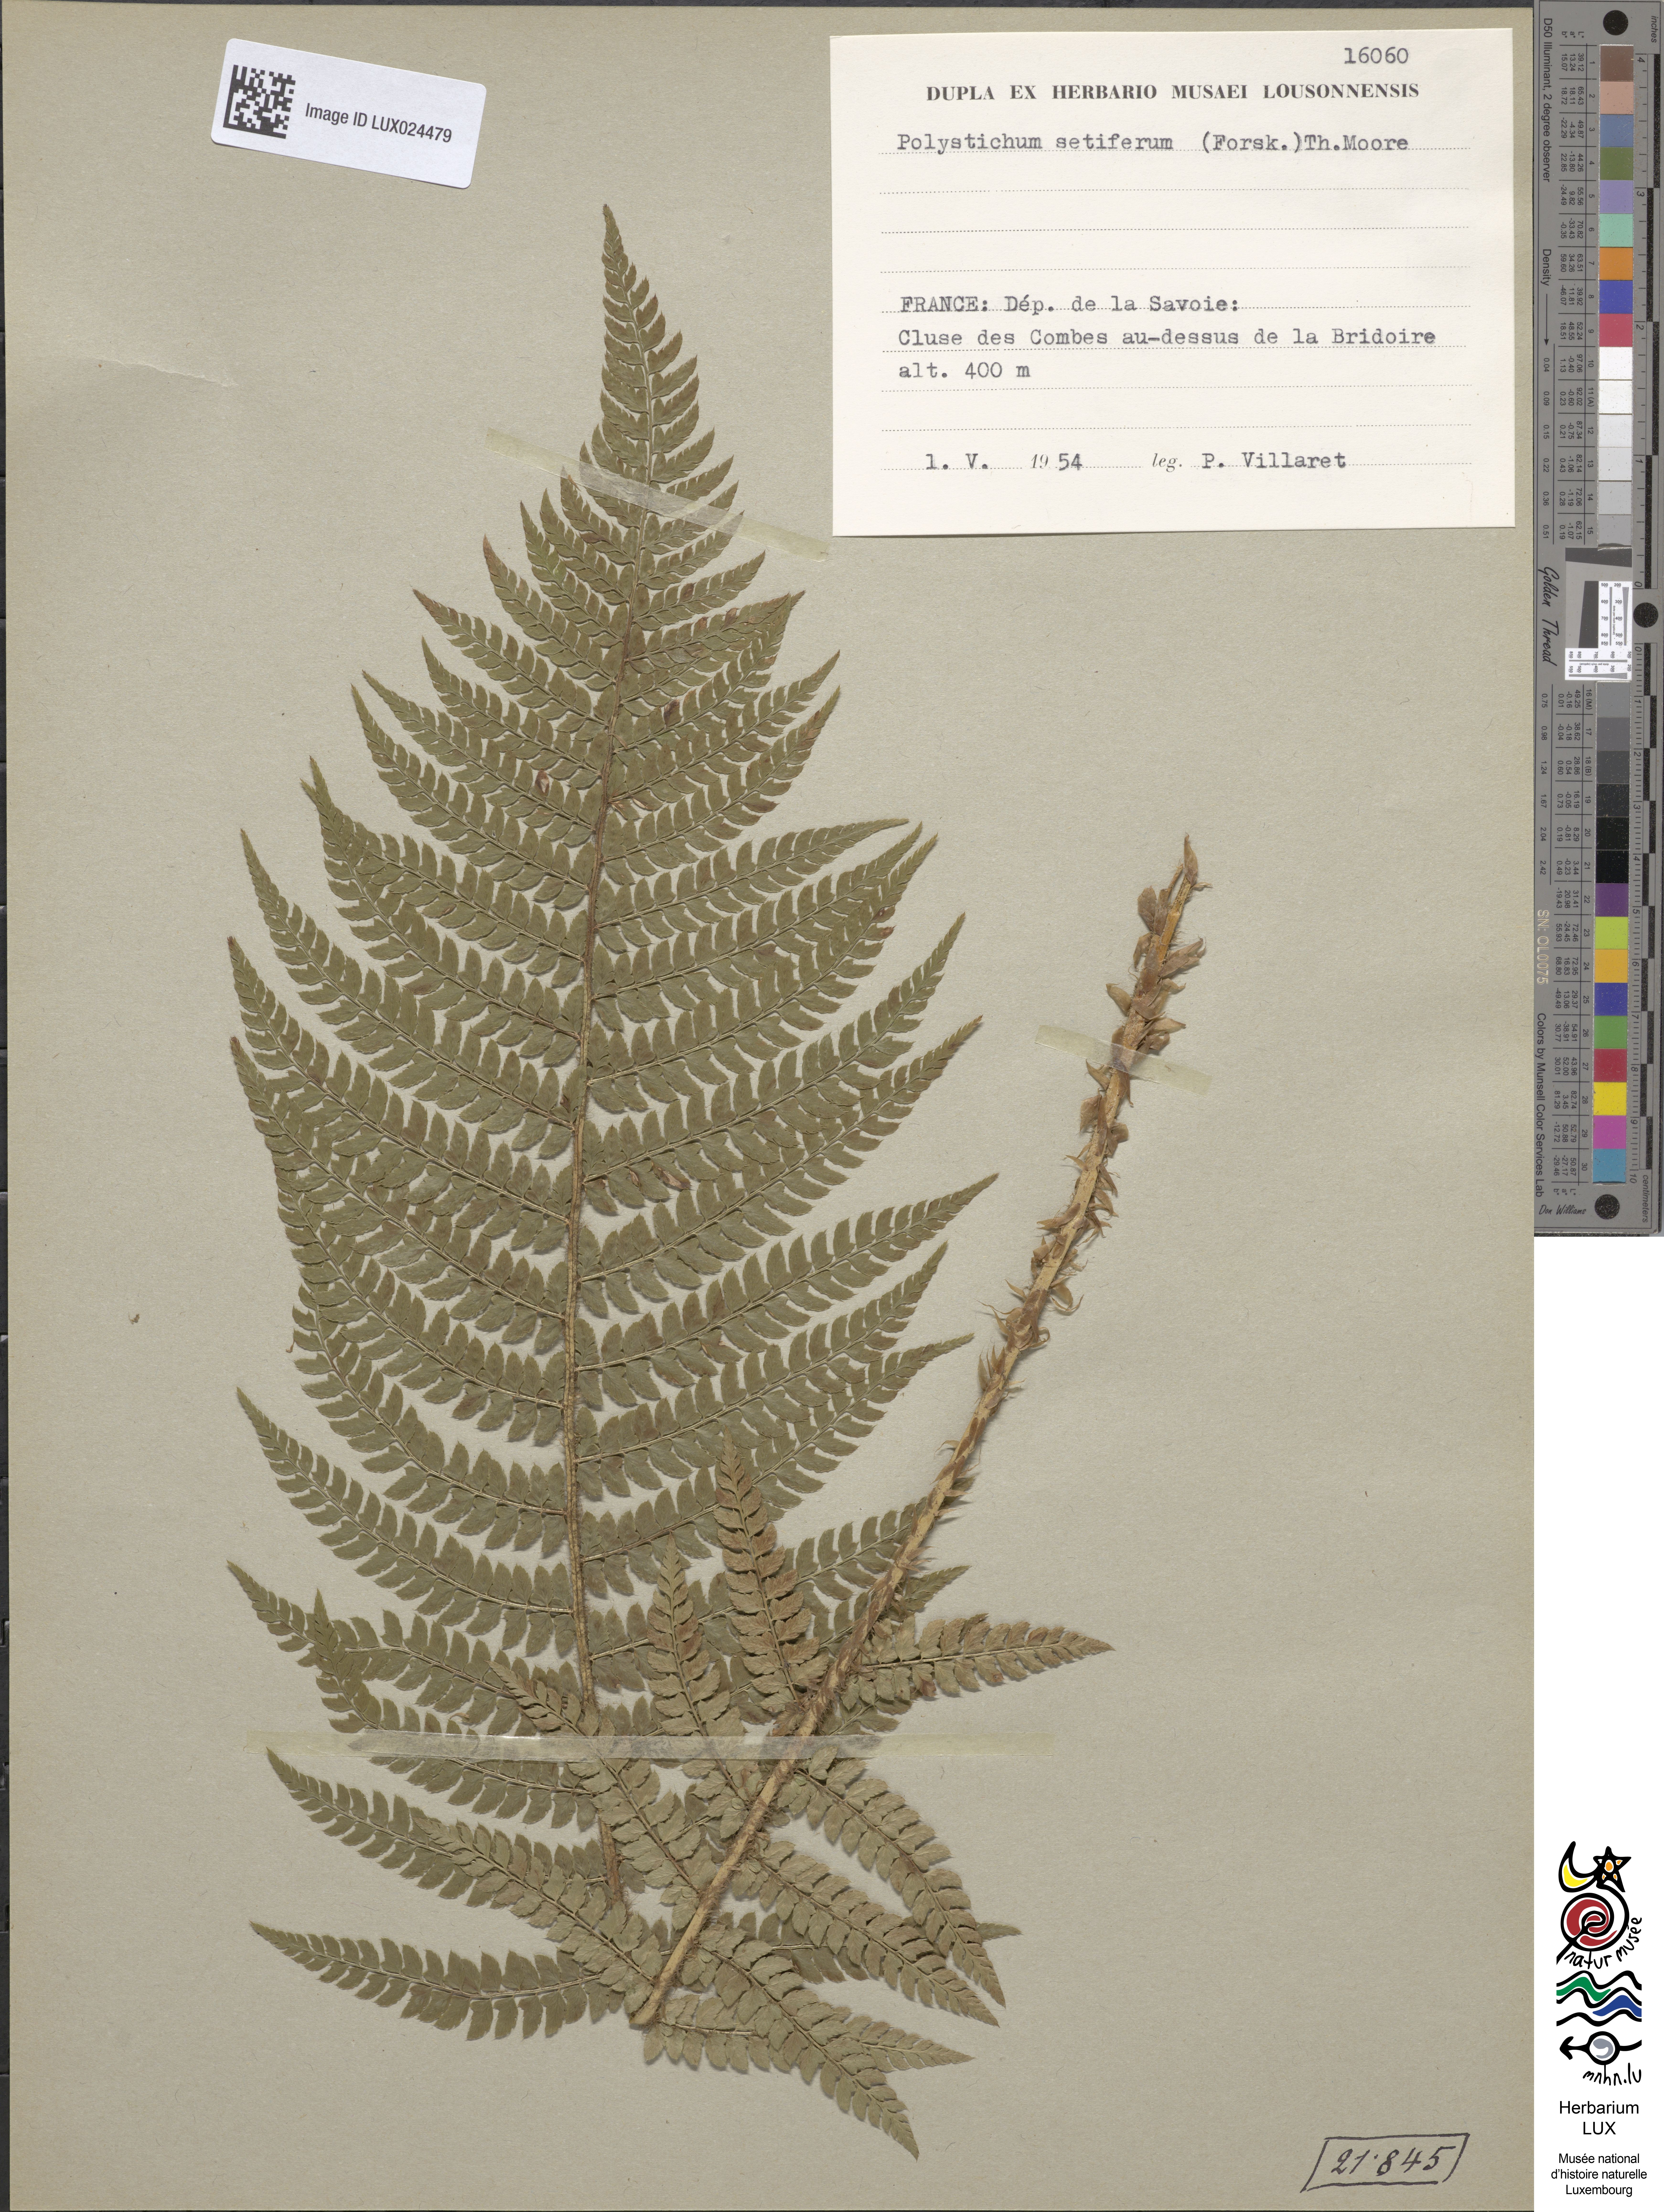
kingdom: Plantae
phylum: Tracheophyta
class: Polypodiopsida
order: Polypodiales
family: Dryopteridaceae
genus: Polystichum
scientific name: Polystichum setiferum
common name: Soft shield-fern
